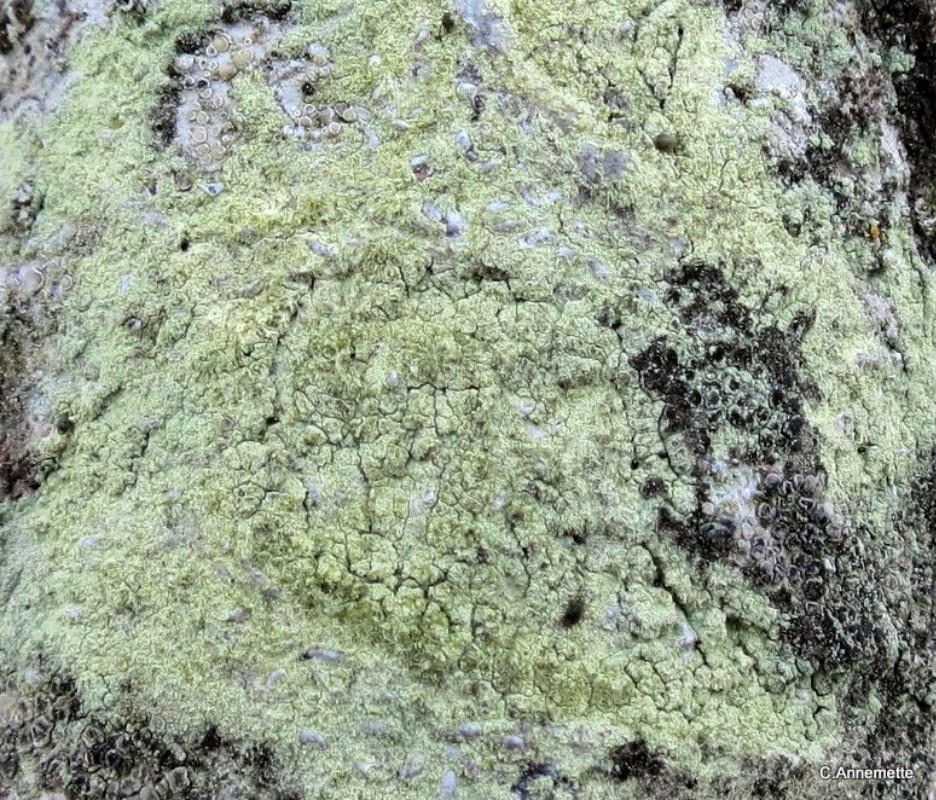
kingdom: Fungi
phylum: Ascomycota
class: Lecanoromycetes
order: Lecanorales
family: Lecanoraceae
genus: Lecanora
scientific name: Lecanora compallens
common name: knudret kantskivelav
